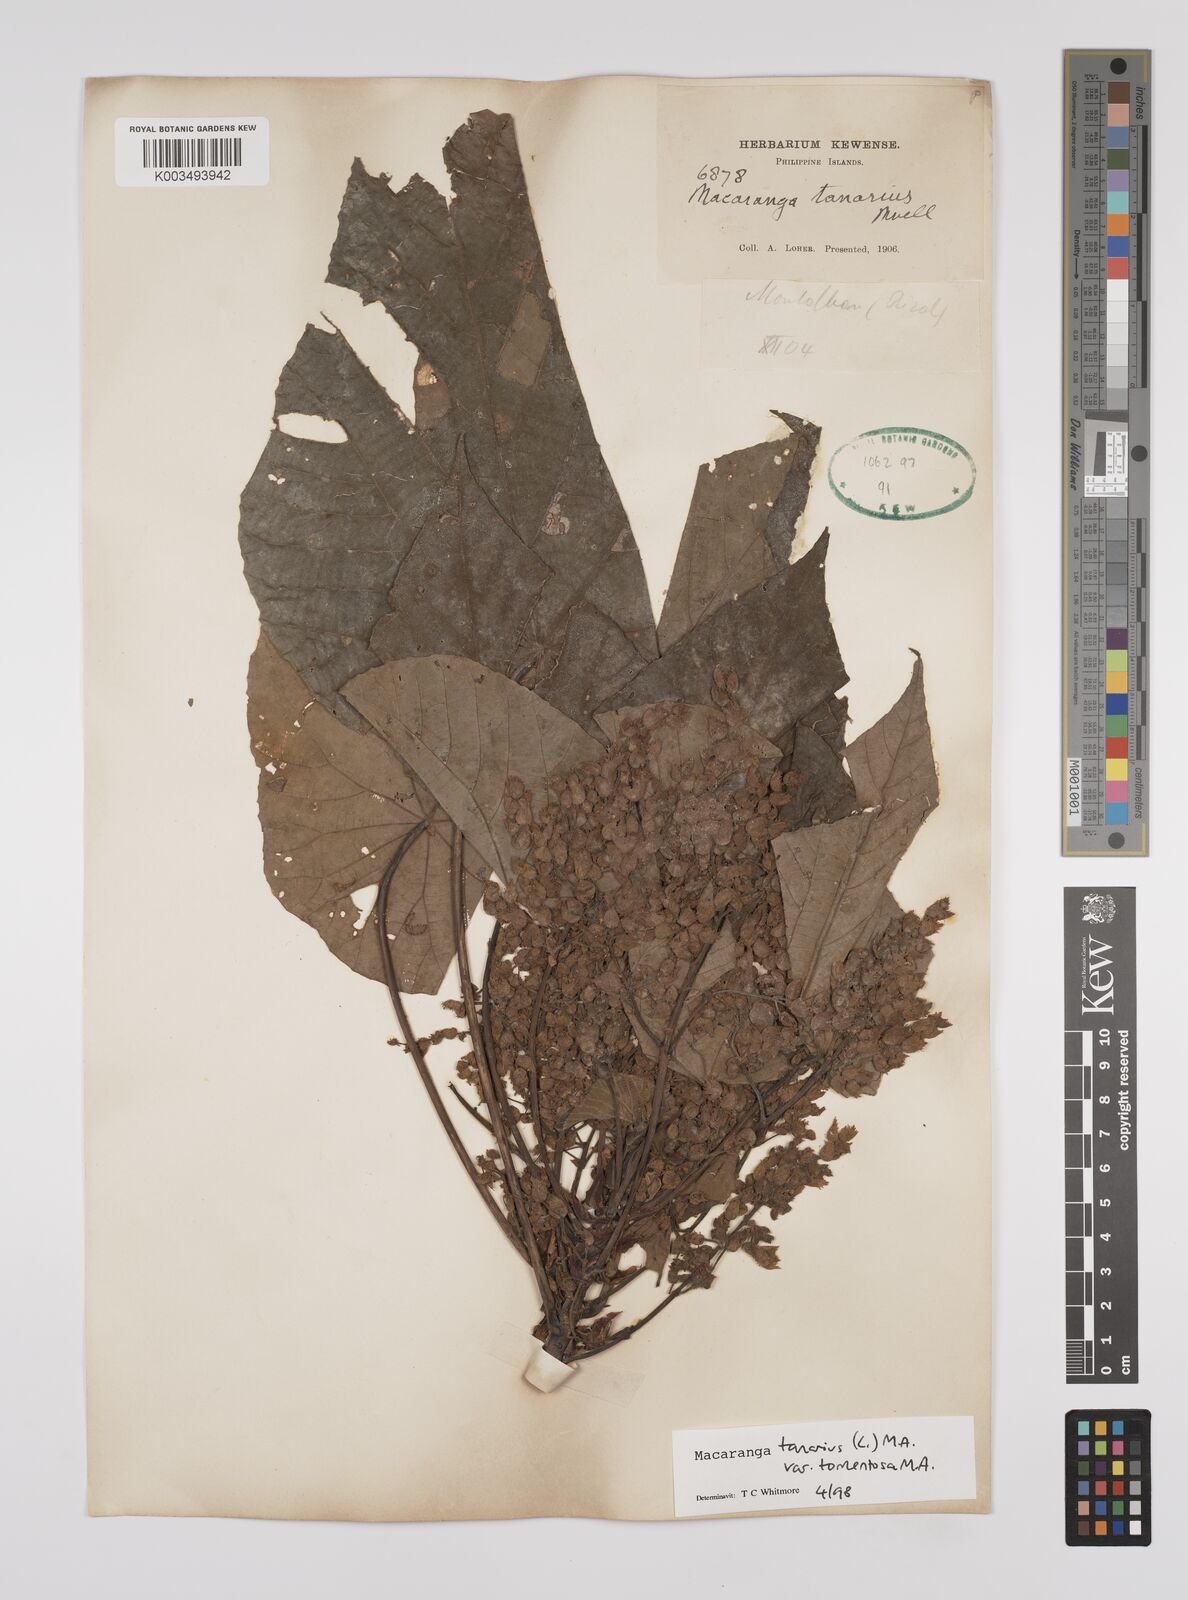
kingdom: Plantae
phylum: Tracheophyta
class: Magnoliopsida
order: Malpighiales
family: Euphorbiaceae
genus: Macaranga
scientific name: Macaranga tanarius
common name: Parasol leaf tree
